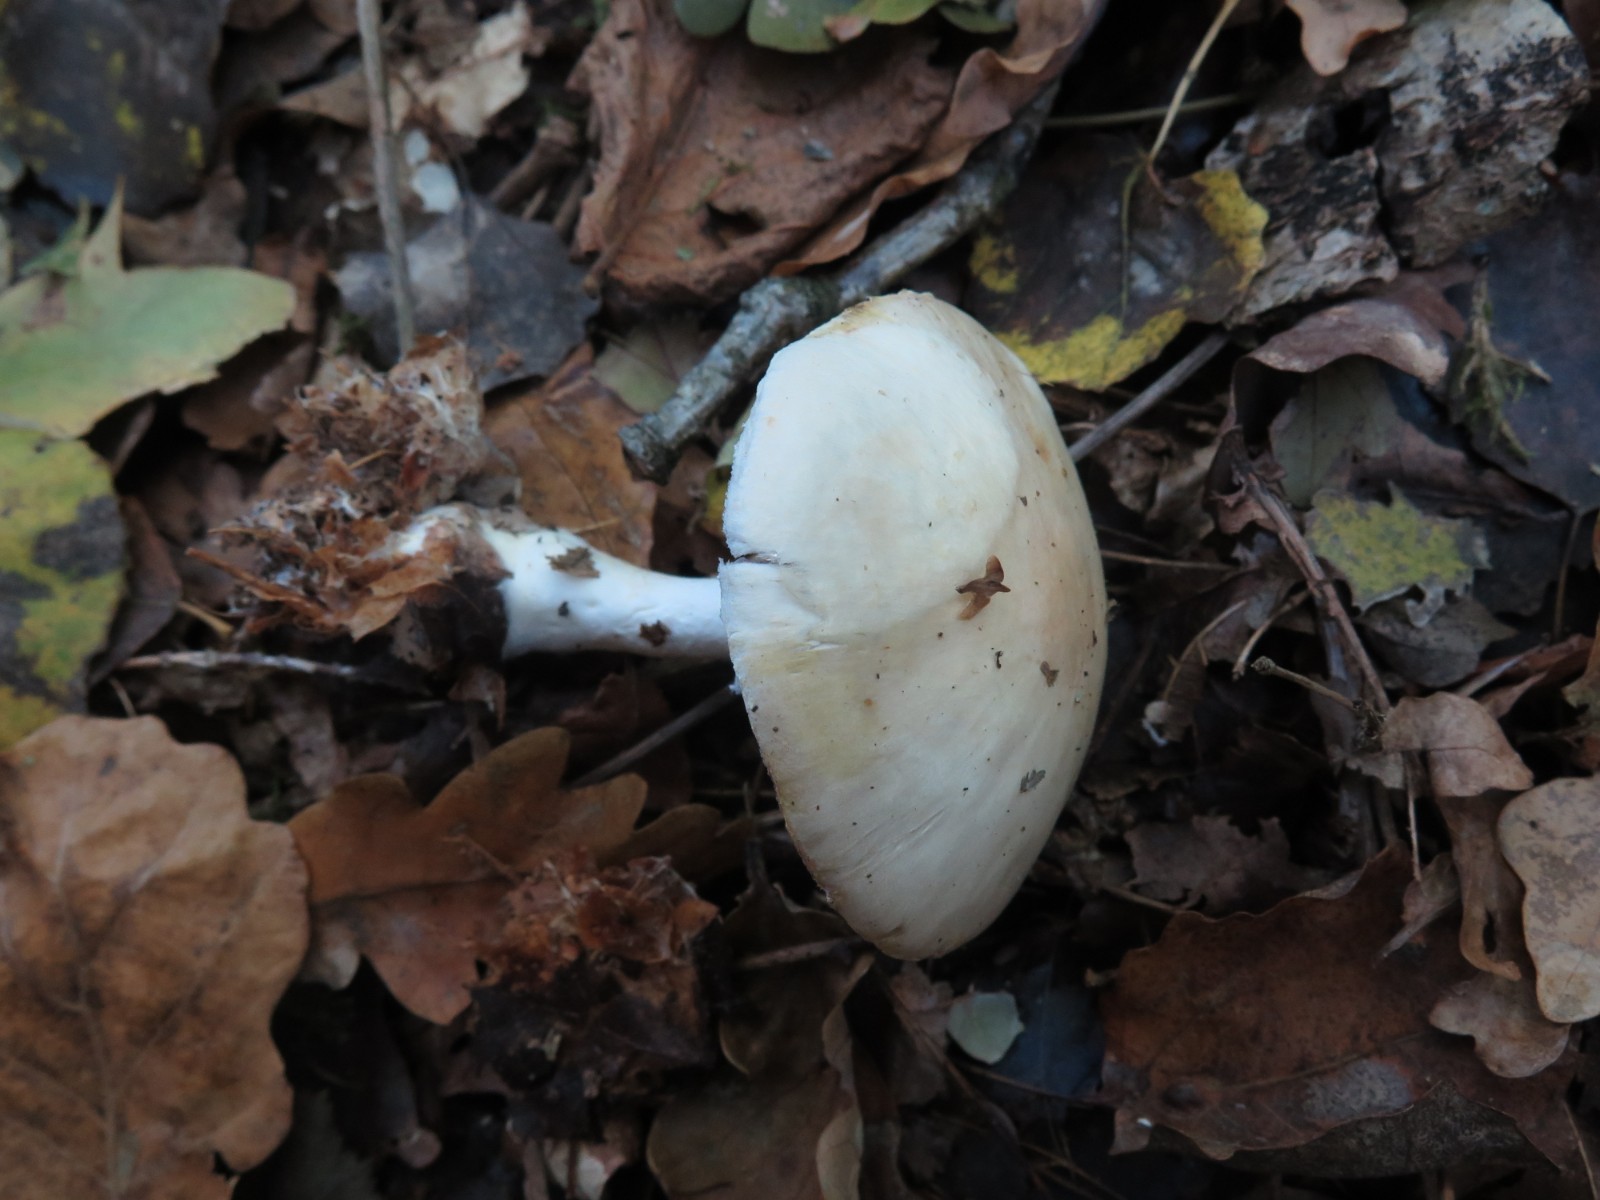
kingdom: Fungi
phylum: Basidiomycota
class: Agaricomycetes
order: Agaricales
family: Agaricaceae
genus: Agaricus
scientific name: Agaricus xanthodermus
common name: karbol-champignon
